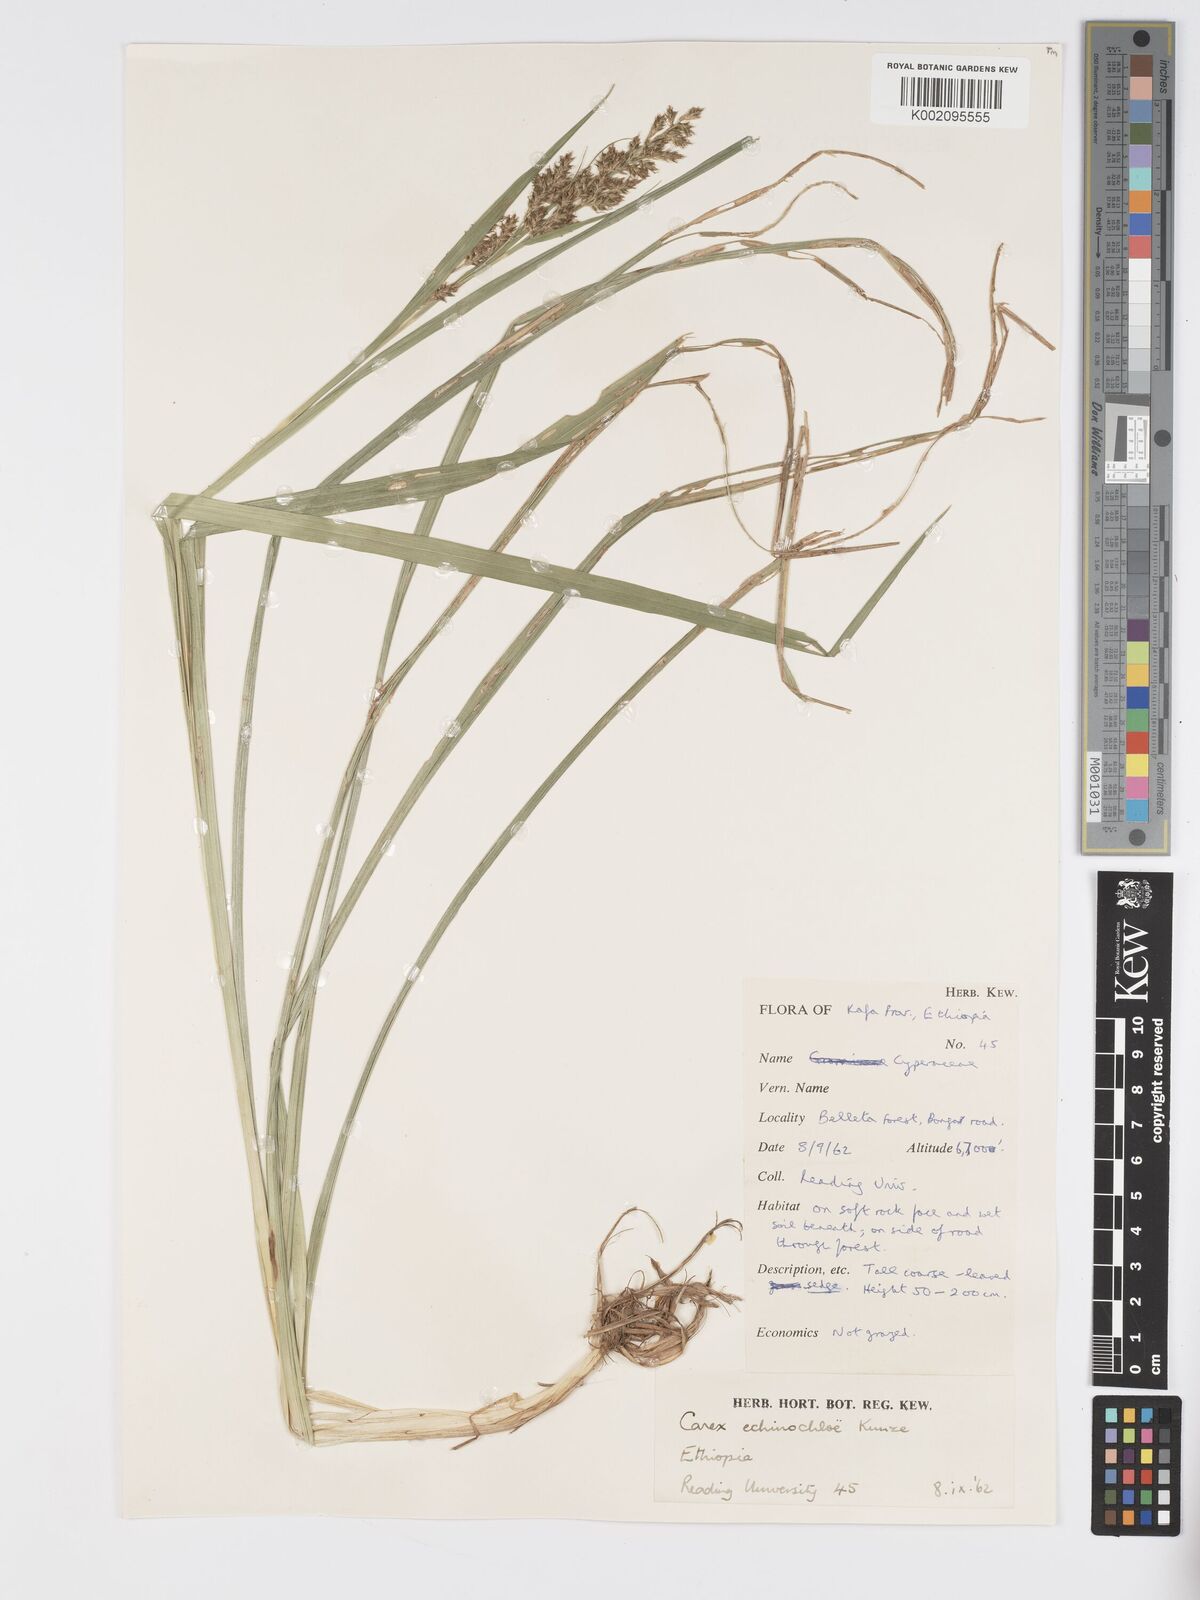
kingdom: Plantae
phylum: Tracheophyta
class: Liliopsida
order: Poales
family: Cyperaceae
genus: Carex
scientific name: Carex echinochloe
